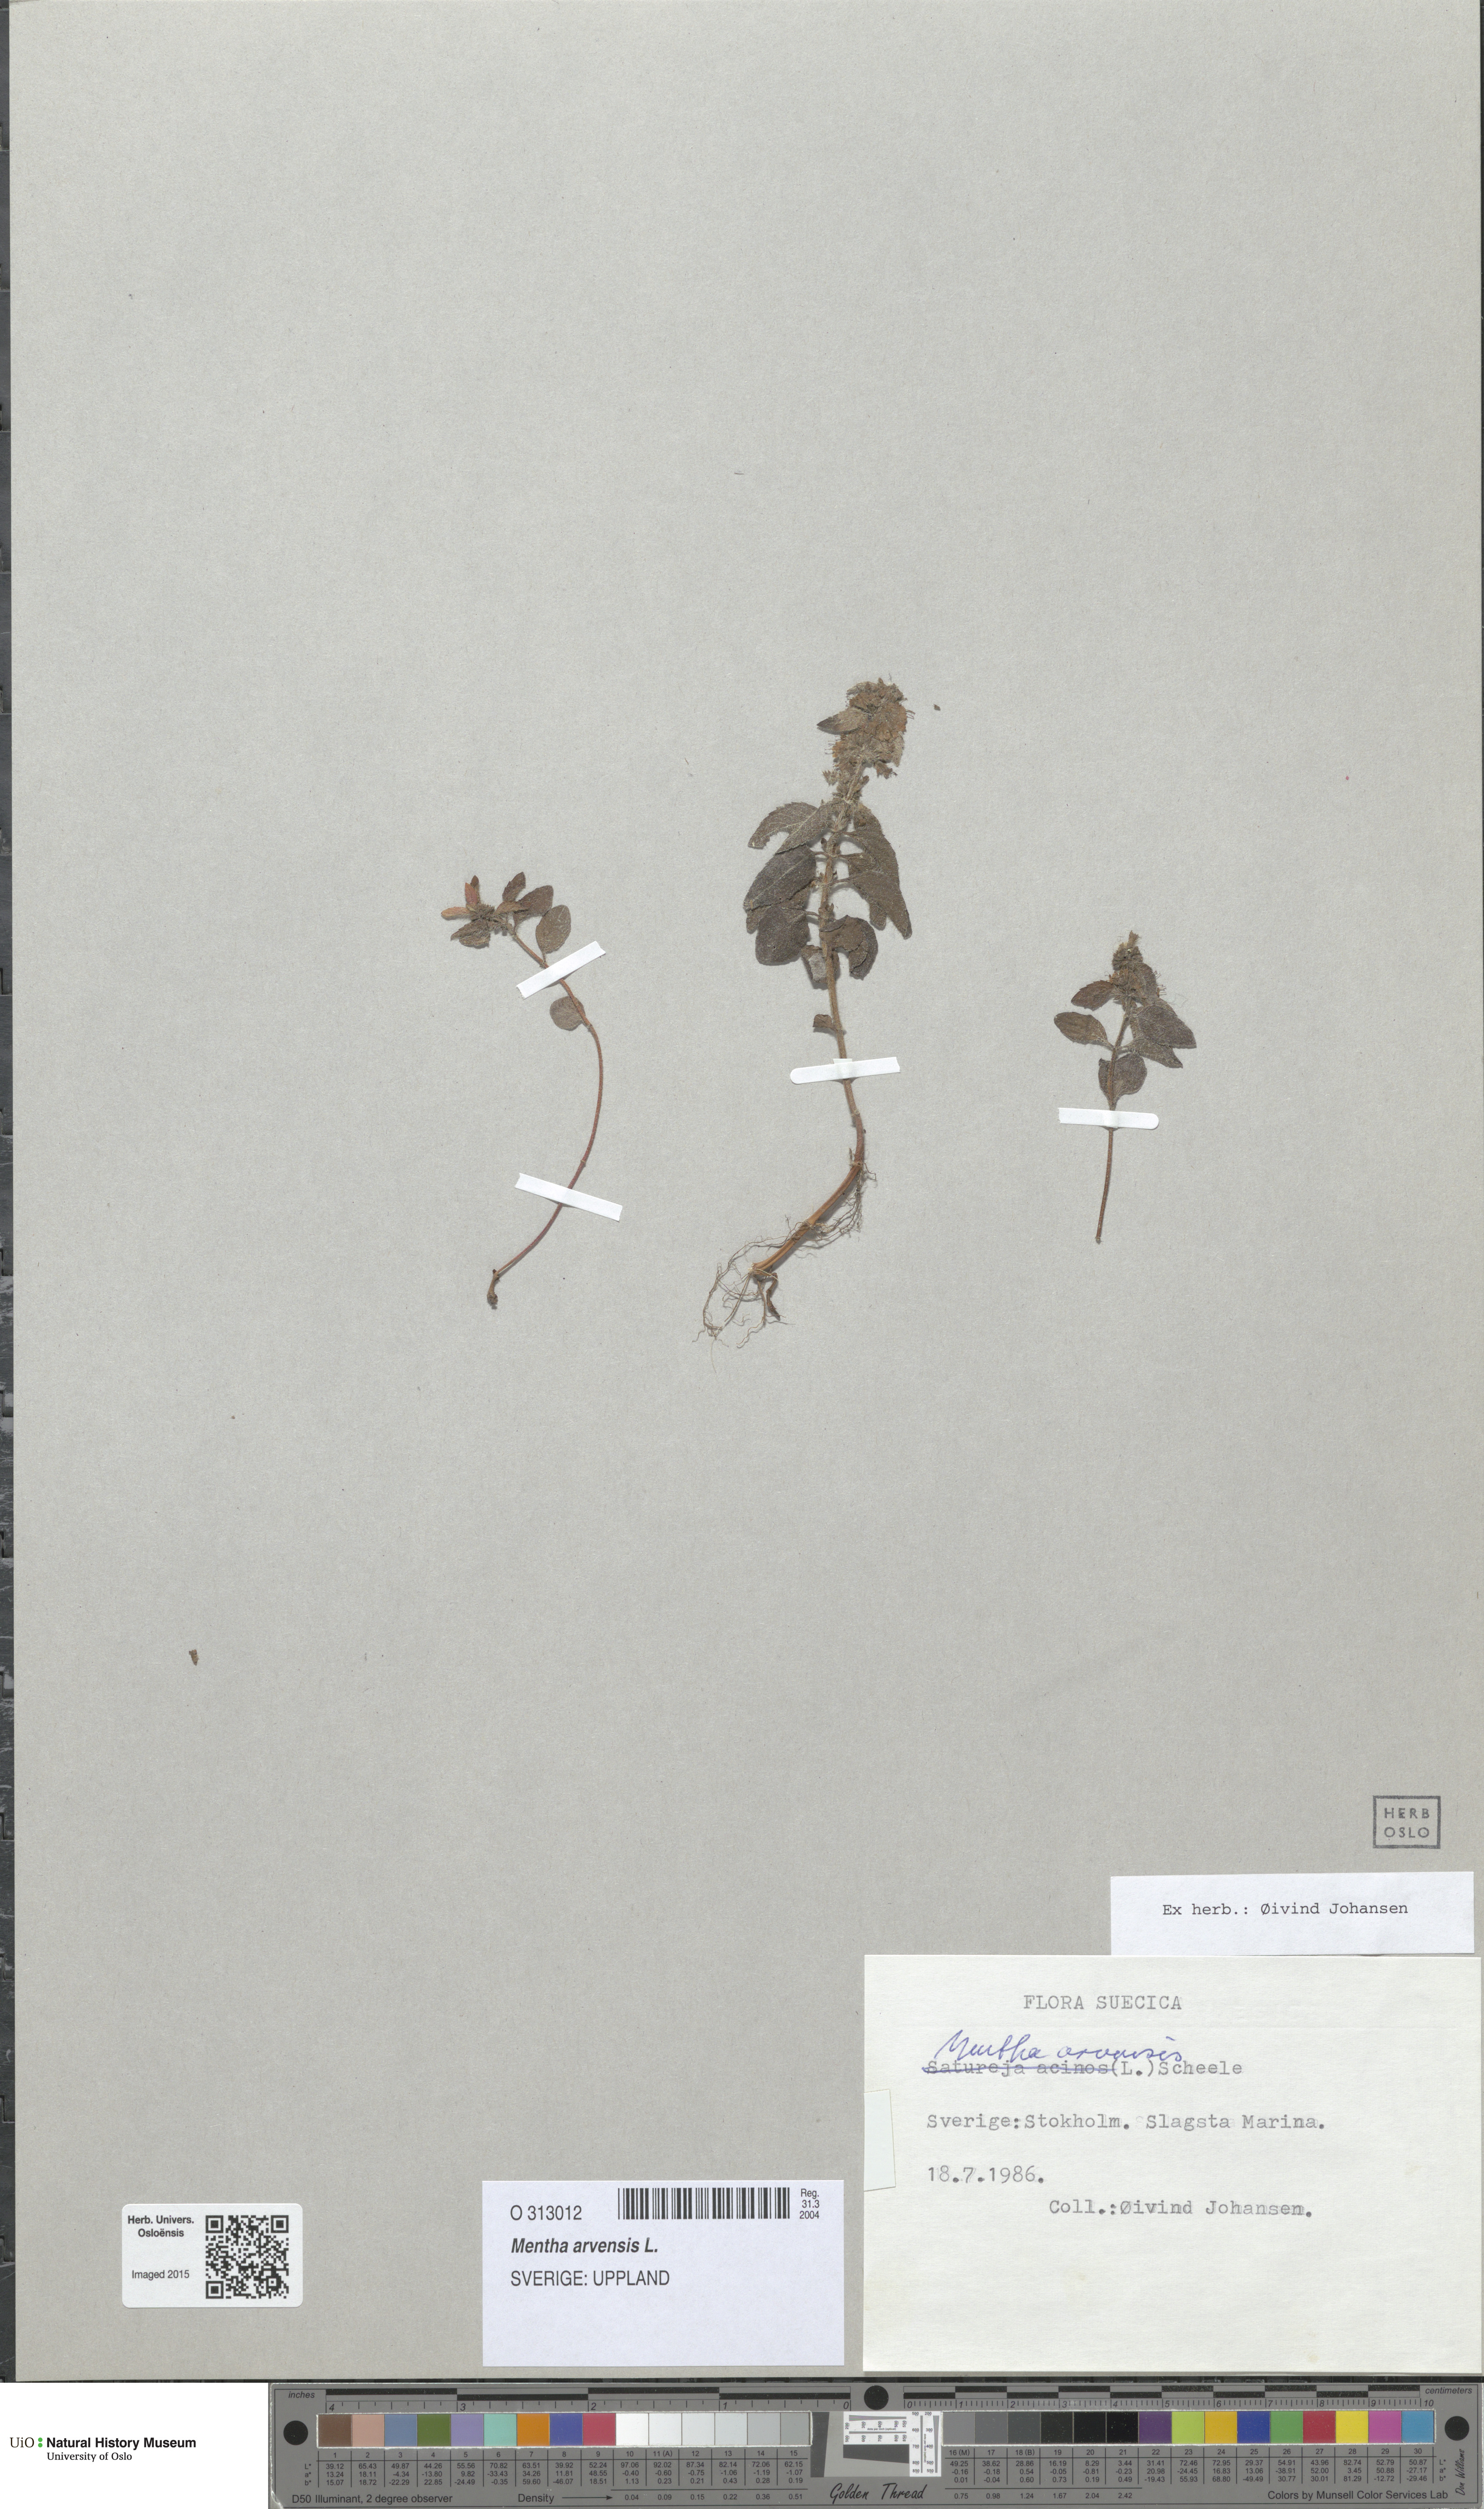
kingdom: Plantae
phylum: Tracheophyta
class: Magnoliopsida
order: Lamiales
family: Lamiaceae
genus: Mentha
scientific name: Mentha arvensis
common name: Corn mint
